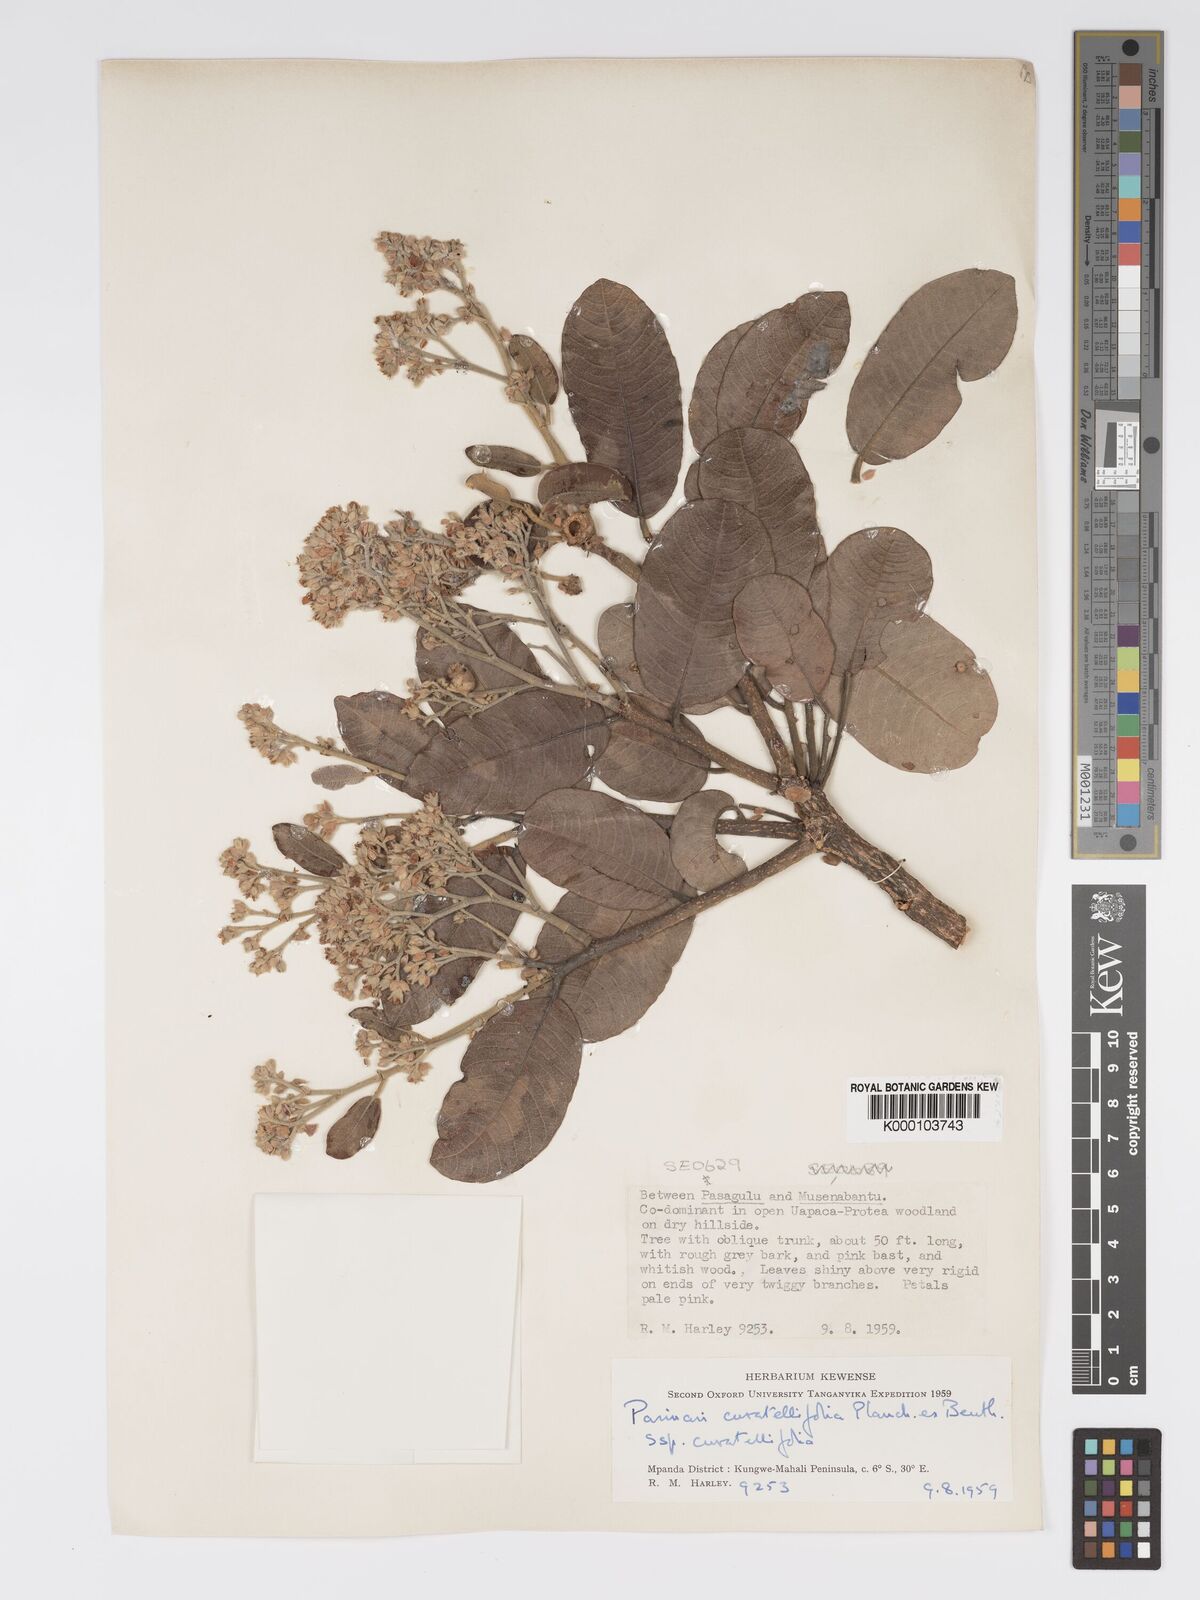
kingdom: Plantae
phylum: Tracheophyta
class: Magnoliopsida
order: Malpighiales
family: Chrysobalanaceae
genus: Parinari
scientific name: Parinari curatellifolia
